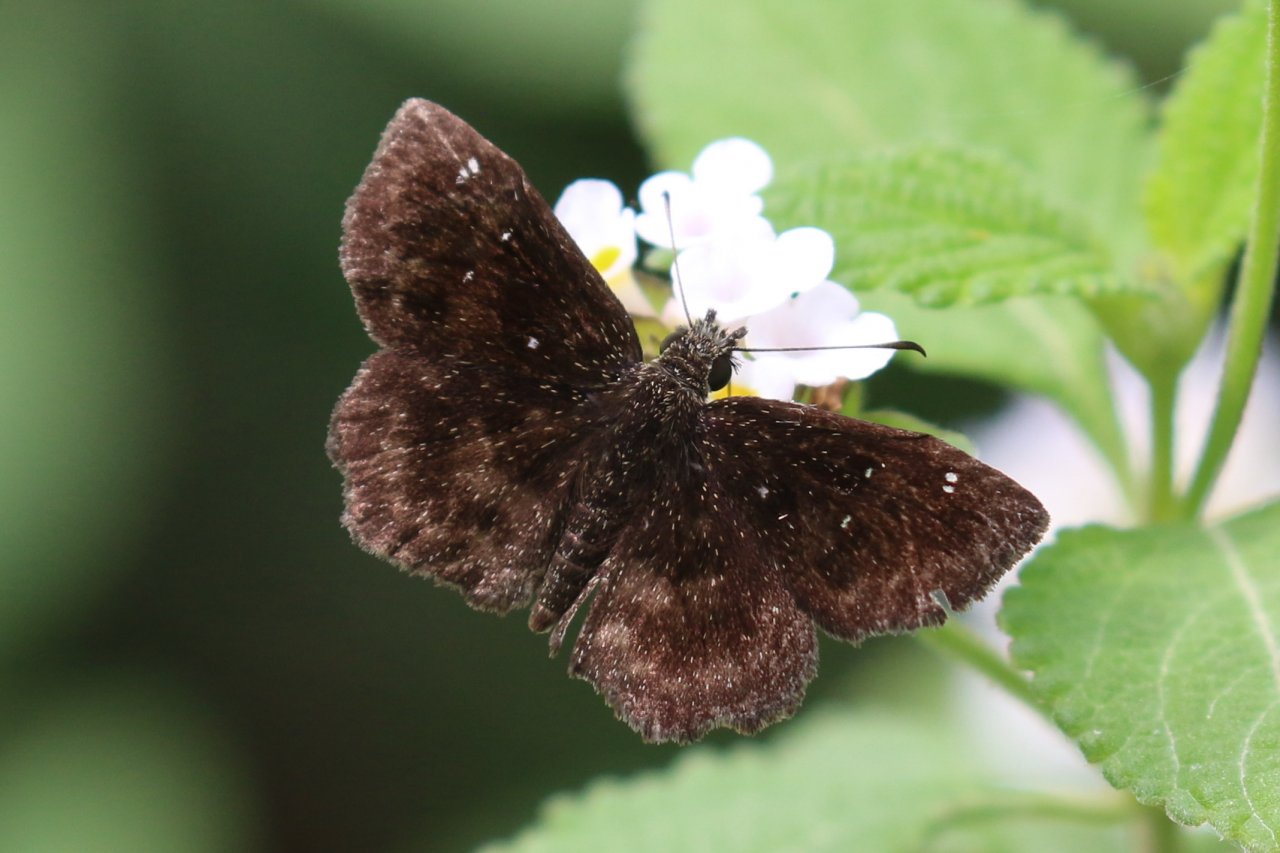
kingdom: Animalia
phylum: Arthropoda
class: Insecta
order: Lepidoptera
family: Hesperiidae
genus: Staphylus
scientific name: Staphylus mazans
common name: Mazans Scallopwing
